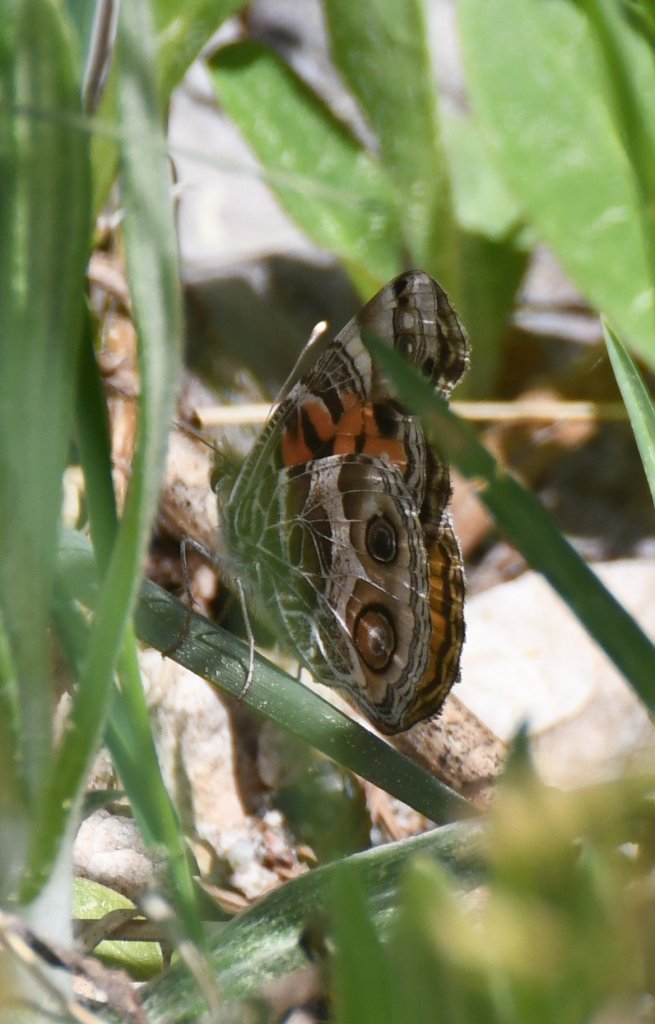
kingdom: Animalia
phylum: Arthropoda
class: Insecta
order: Lepidoptera
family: Nymphalidae
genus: Vanessa
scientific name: Vanessa virginiensis
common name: American Lady
